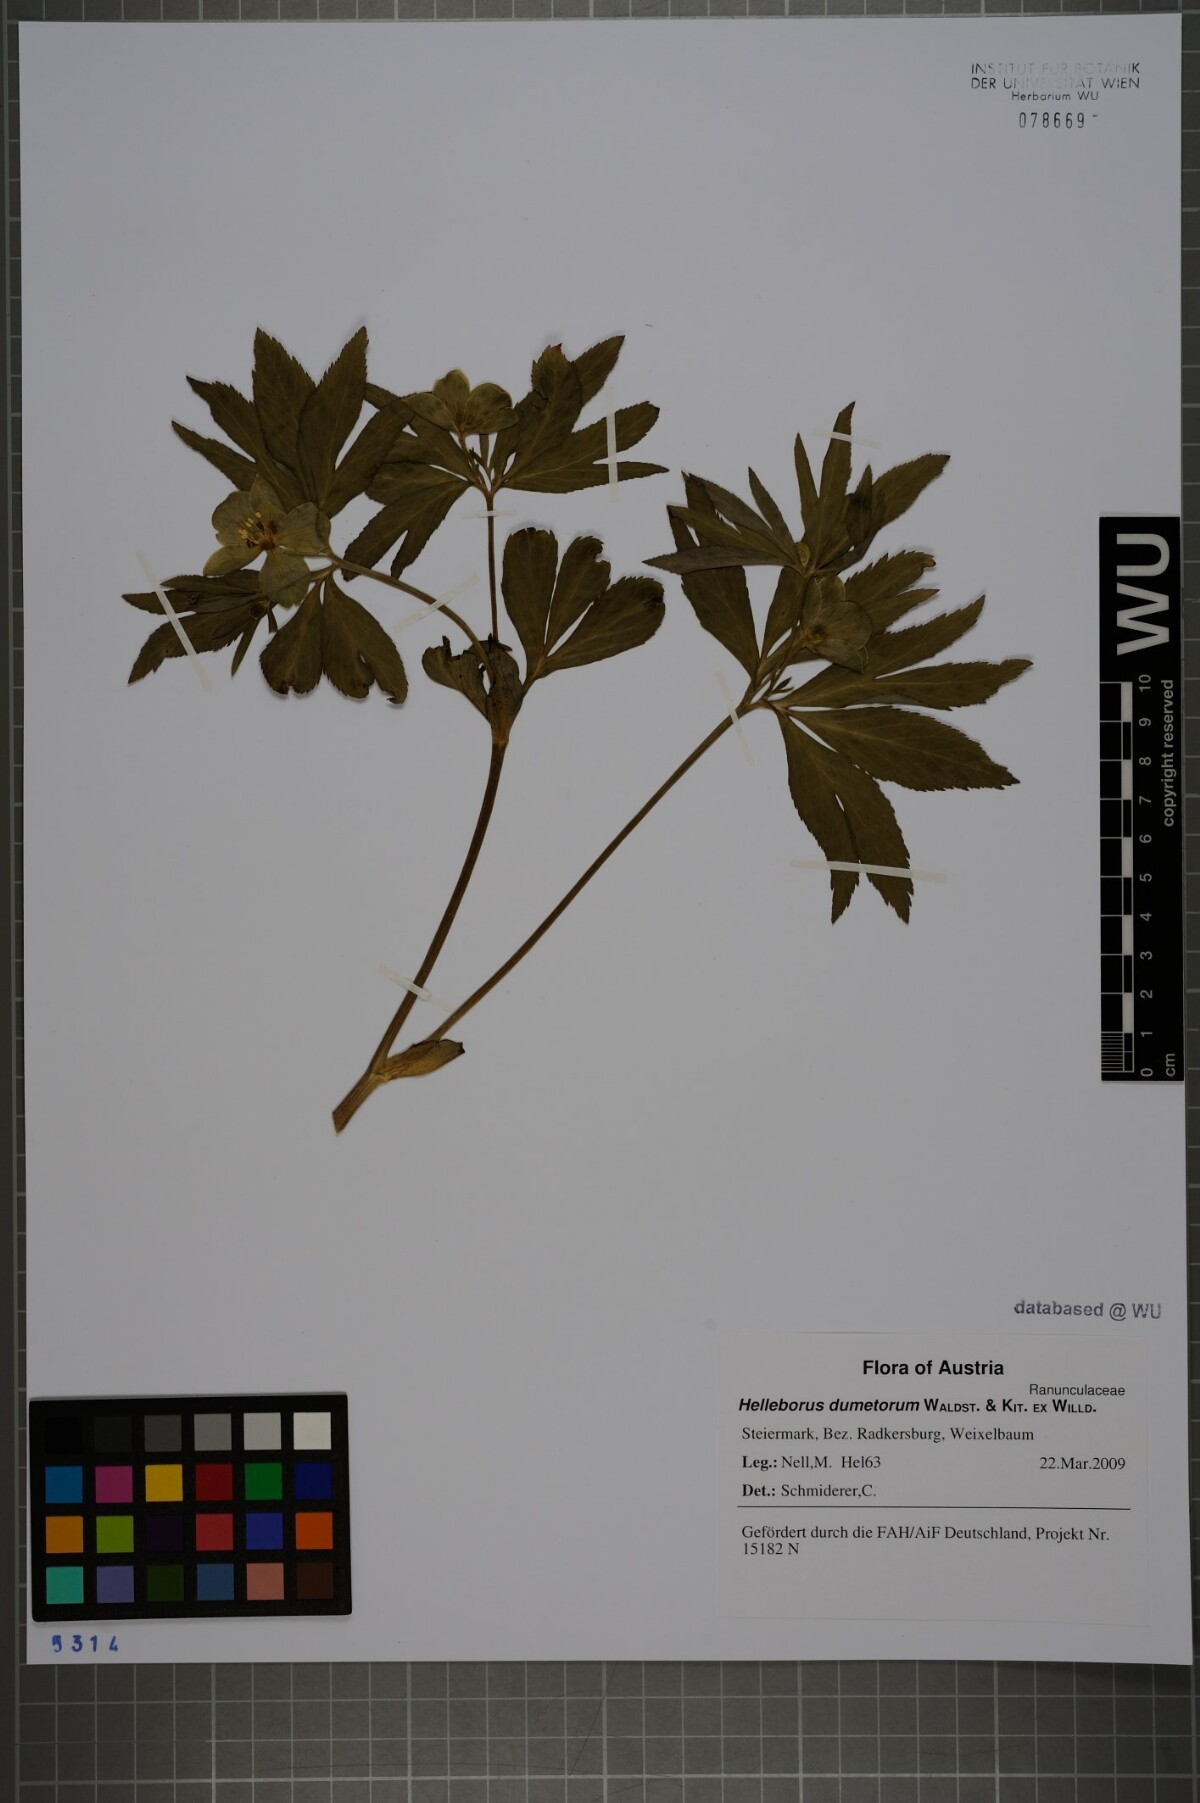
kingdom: Plantae
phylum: Tracheophyta
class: Magnoliopsida
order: Ranunculales
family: Ranunculaceae
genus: Helleborus
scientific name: Helleborus dumetorum
